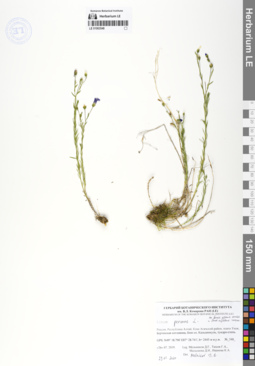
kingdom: Plantae
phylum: Tracheophyta
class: Magnoliopsida
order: Malpighiales
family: Linaceae
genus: Linum
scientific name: Linum perenne
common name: Blue flax
